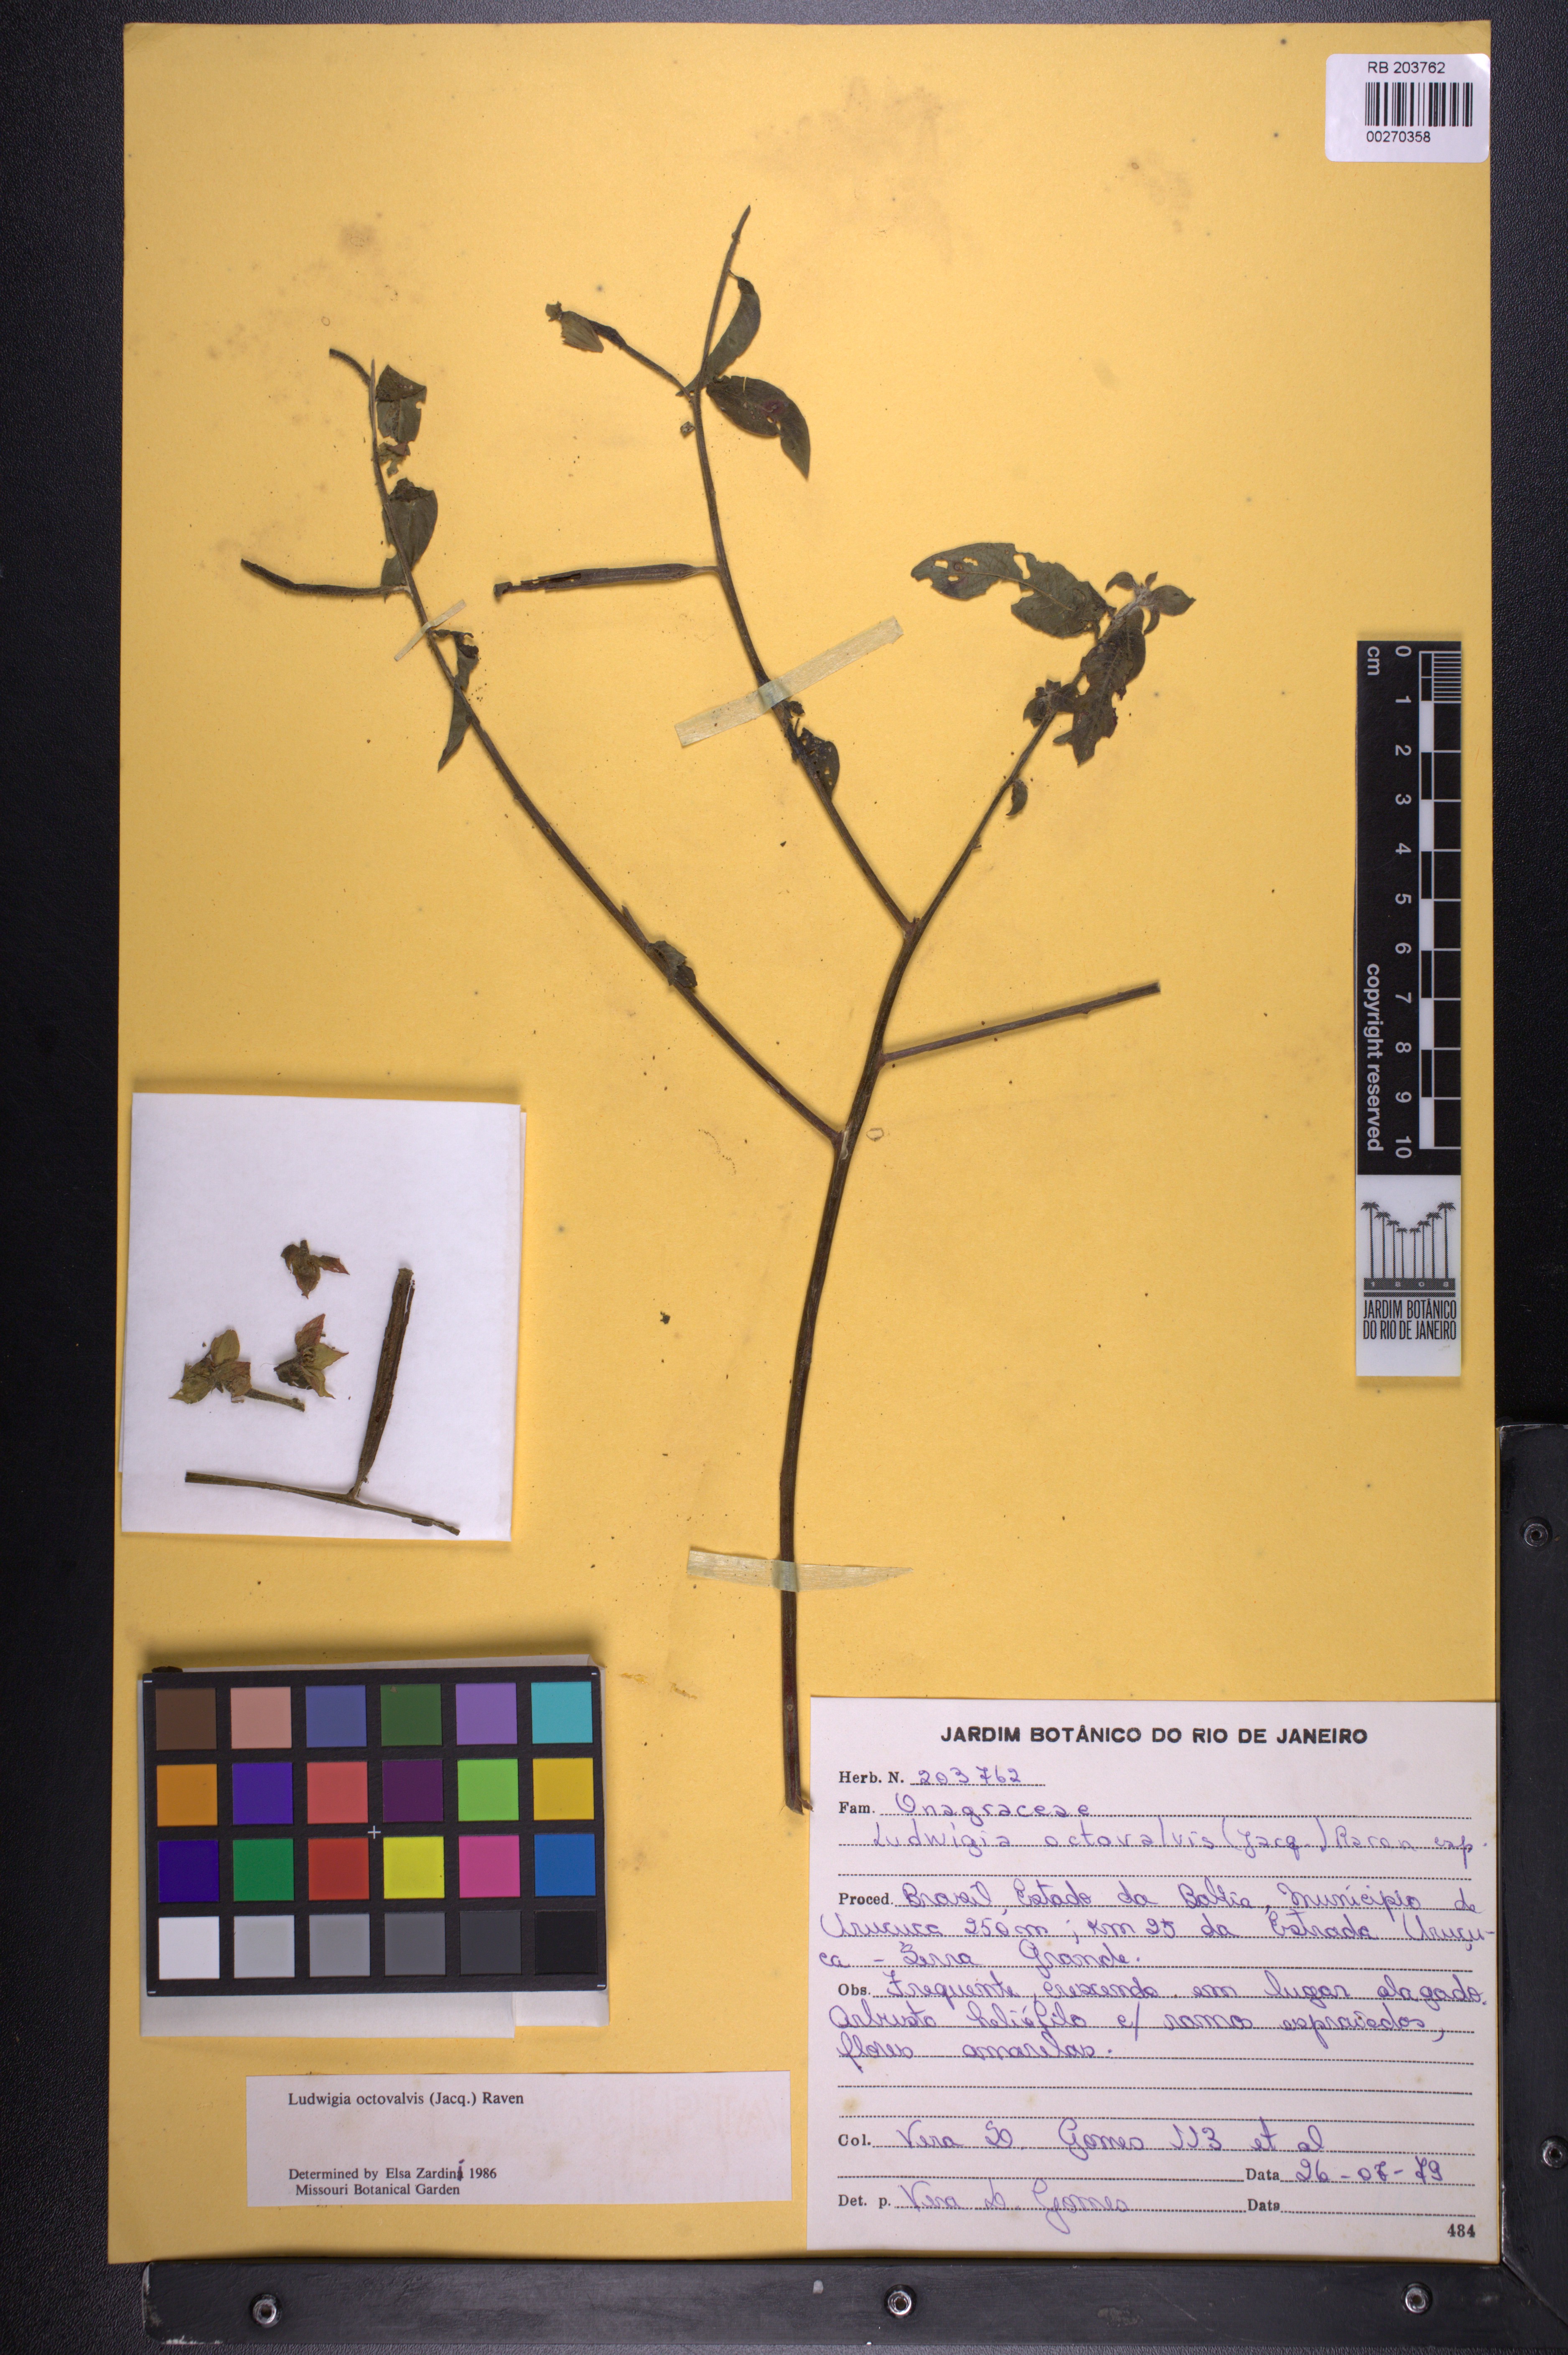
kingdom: Plantae
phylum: Tracheophyta
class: Magnoliopsida
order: Myrtales
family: Onagraceae
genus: Ludwigia
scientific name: Ludwigia octovalvis
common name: Water-primrose
